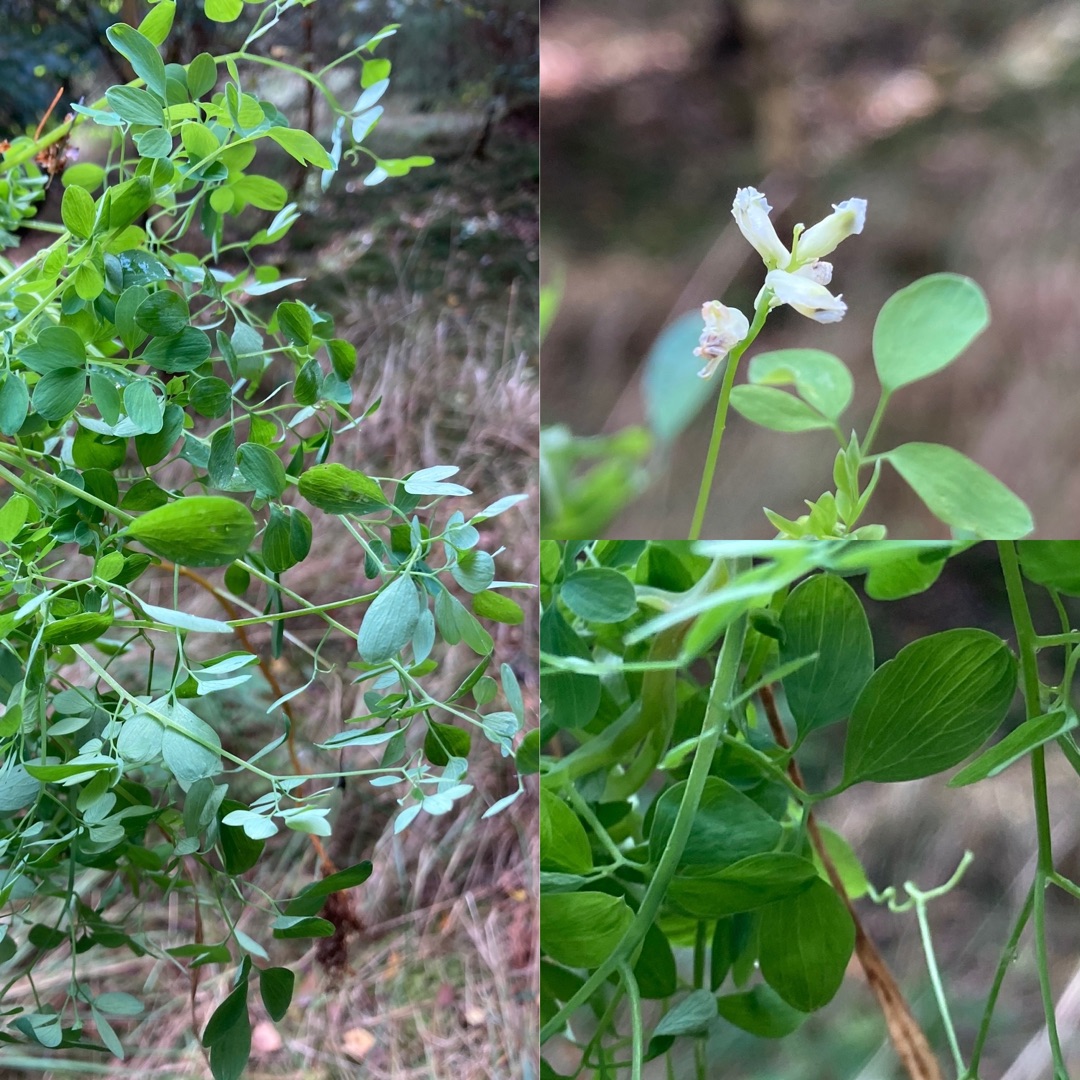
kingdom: Plantae
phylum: Tracheophyta
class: Magnoliopsida
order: Ranunculales
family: Papaveraceae
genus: Ceratocapnos
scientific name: Ceratocapnos claviculata
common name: Klatrende lærkespore
